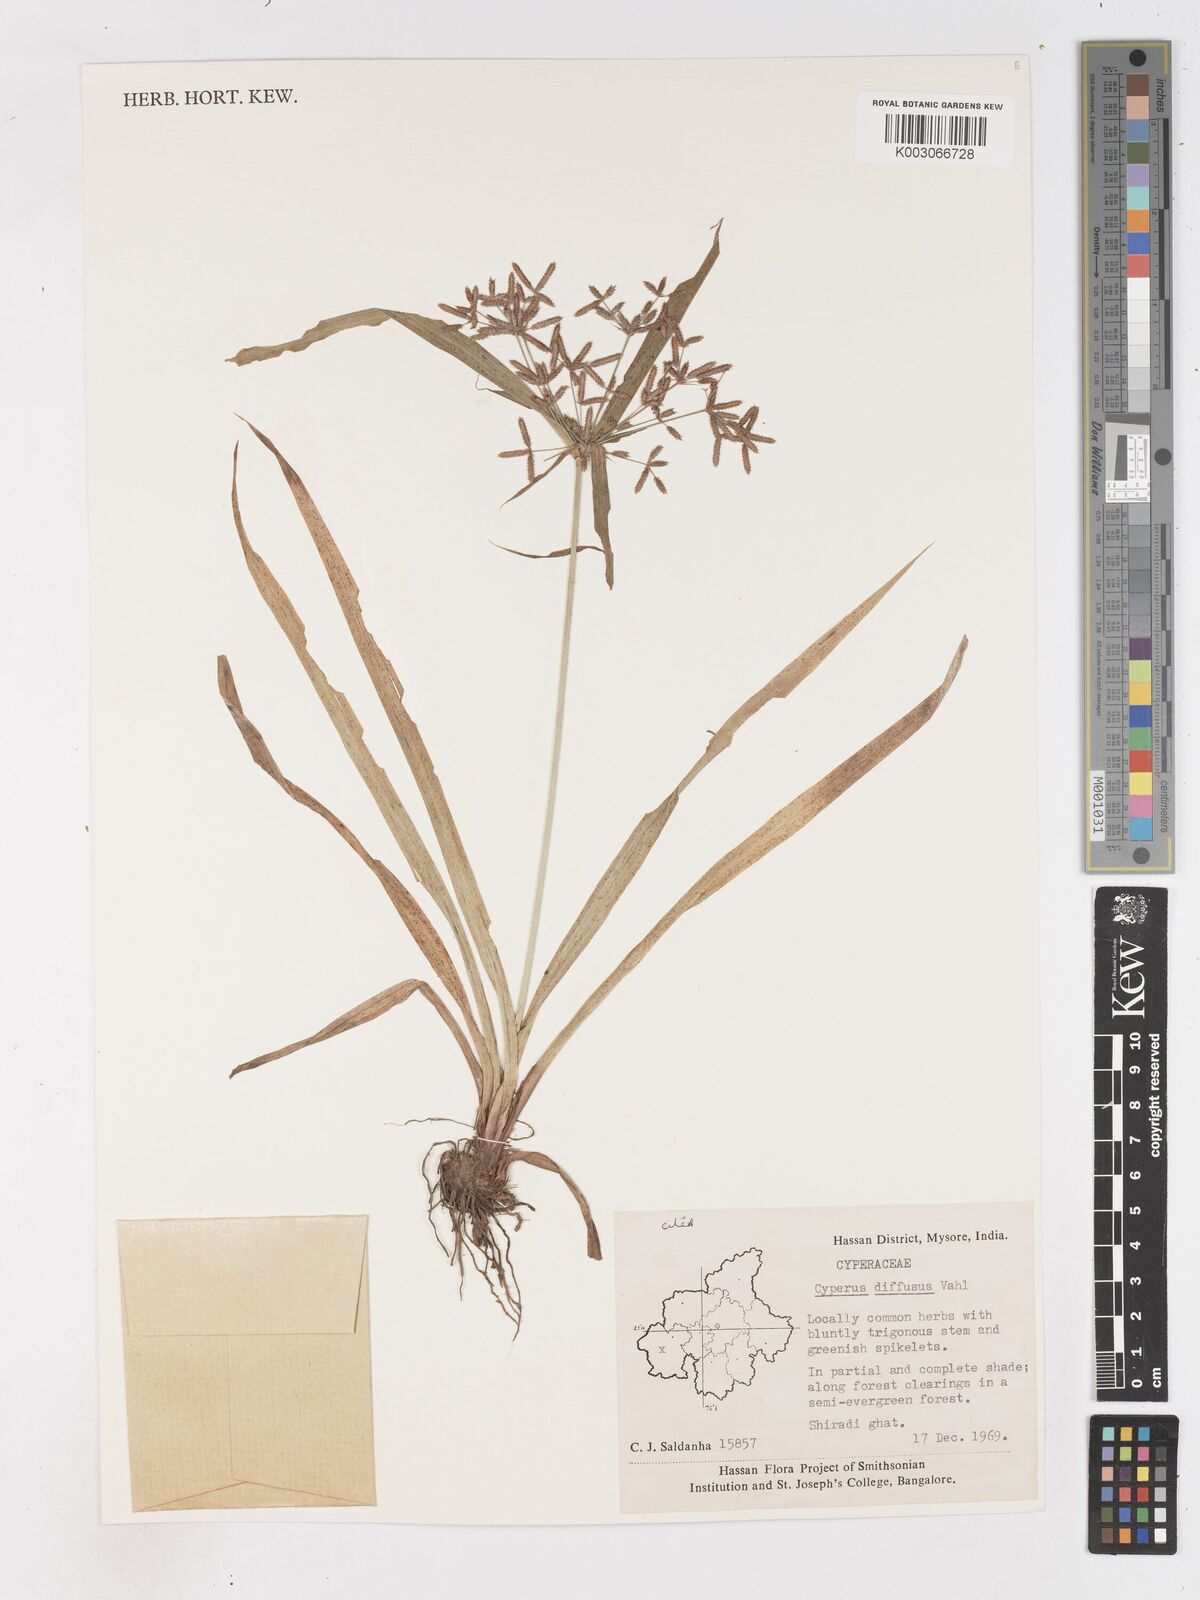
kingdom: Plantae
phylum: Tracheophyta
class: Liliopsida
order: Poales
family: Cyperaceae
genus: Cyperus
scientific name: Cyperus diffusus
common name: Dwarf umbrella grass
